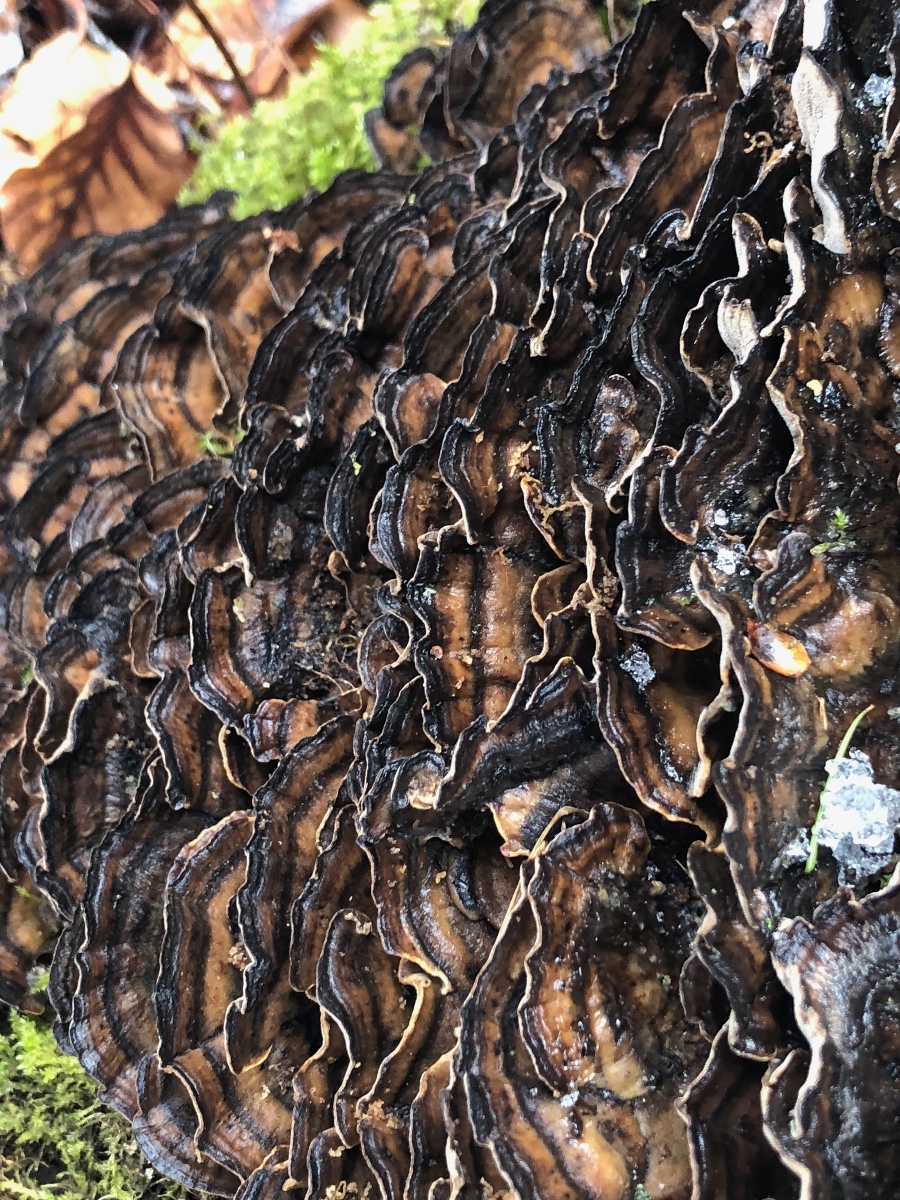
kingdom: Fungi
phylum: Basidiomycota
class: Agaricomycetes
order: Polyporales
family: Phanerochaetaceae
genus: Bjerkandera
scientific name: Bjerkandera adusta
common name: sveden sodporesvamp
